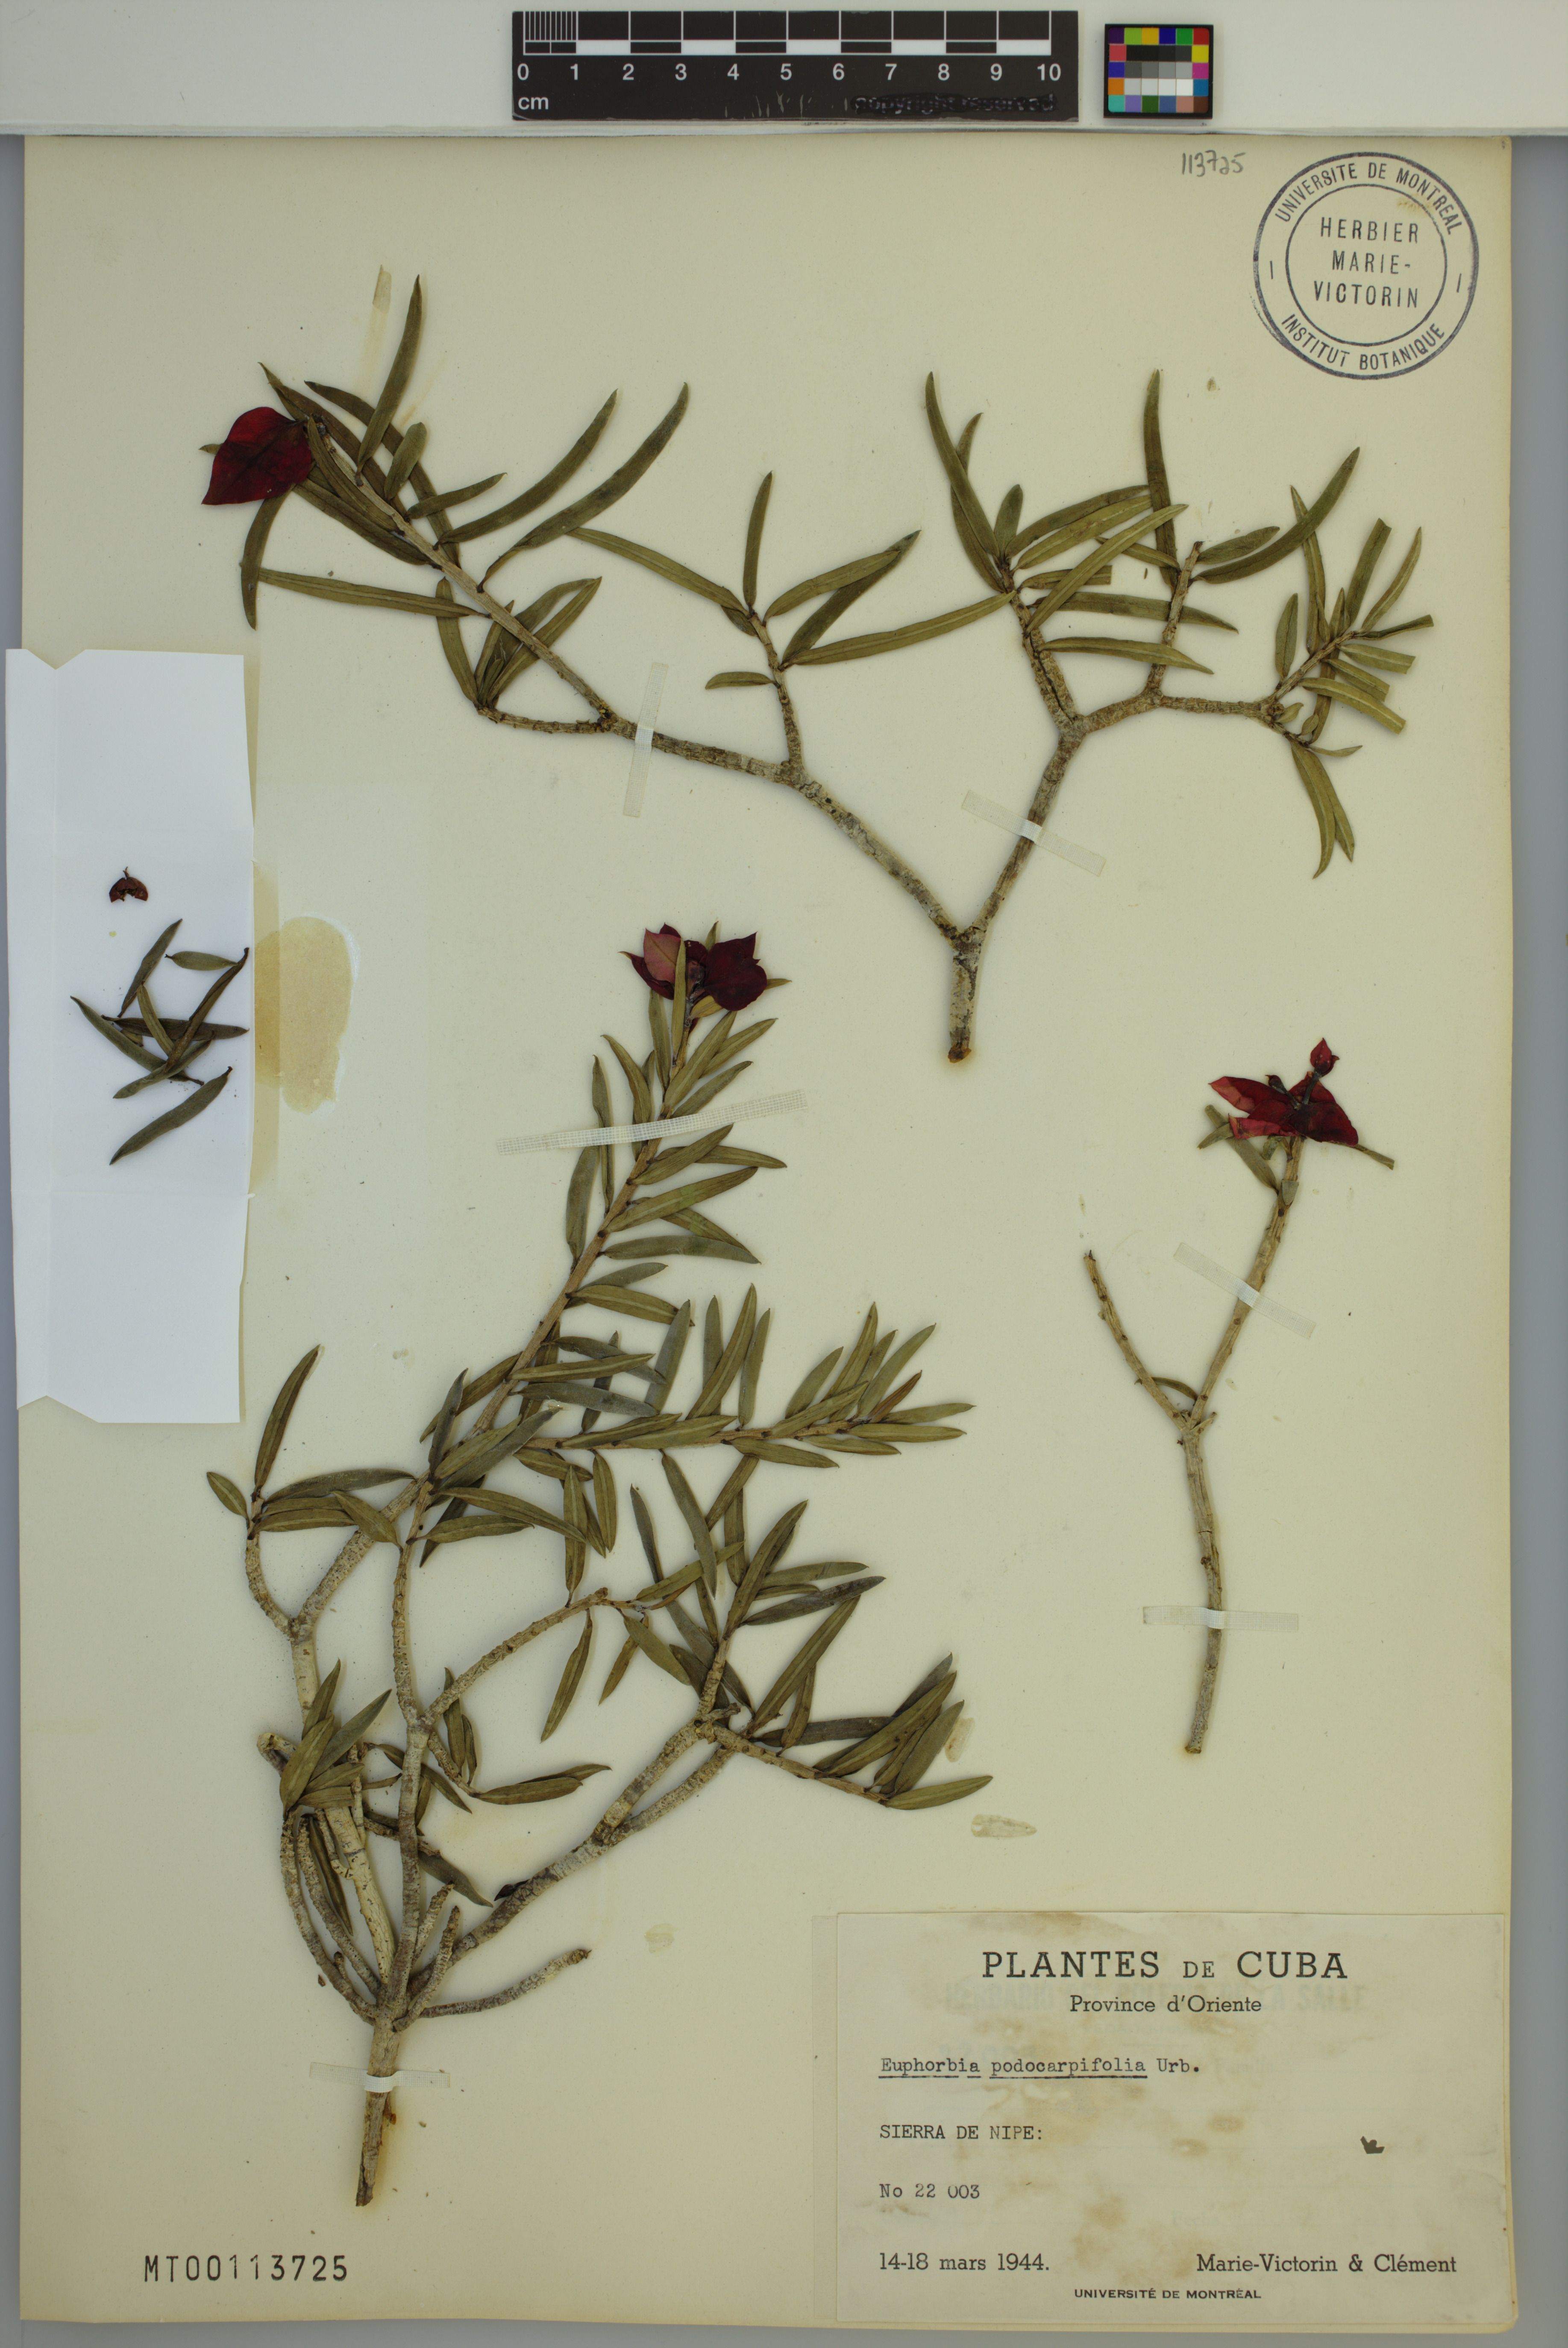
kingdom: Plantae
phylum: Tracheophyta
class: Magnoliopsida
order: Malpighiales
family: Euphorbiaceae
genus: Euphorbia
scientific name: Euphorbia podocarpifolia
